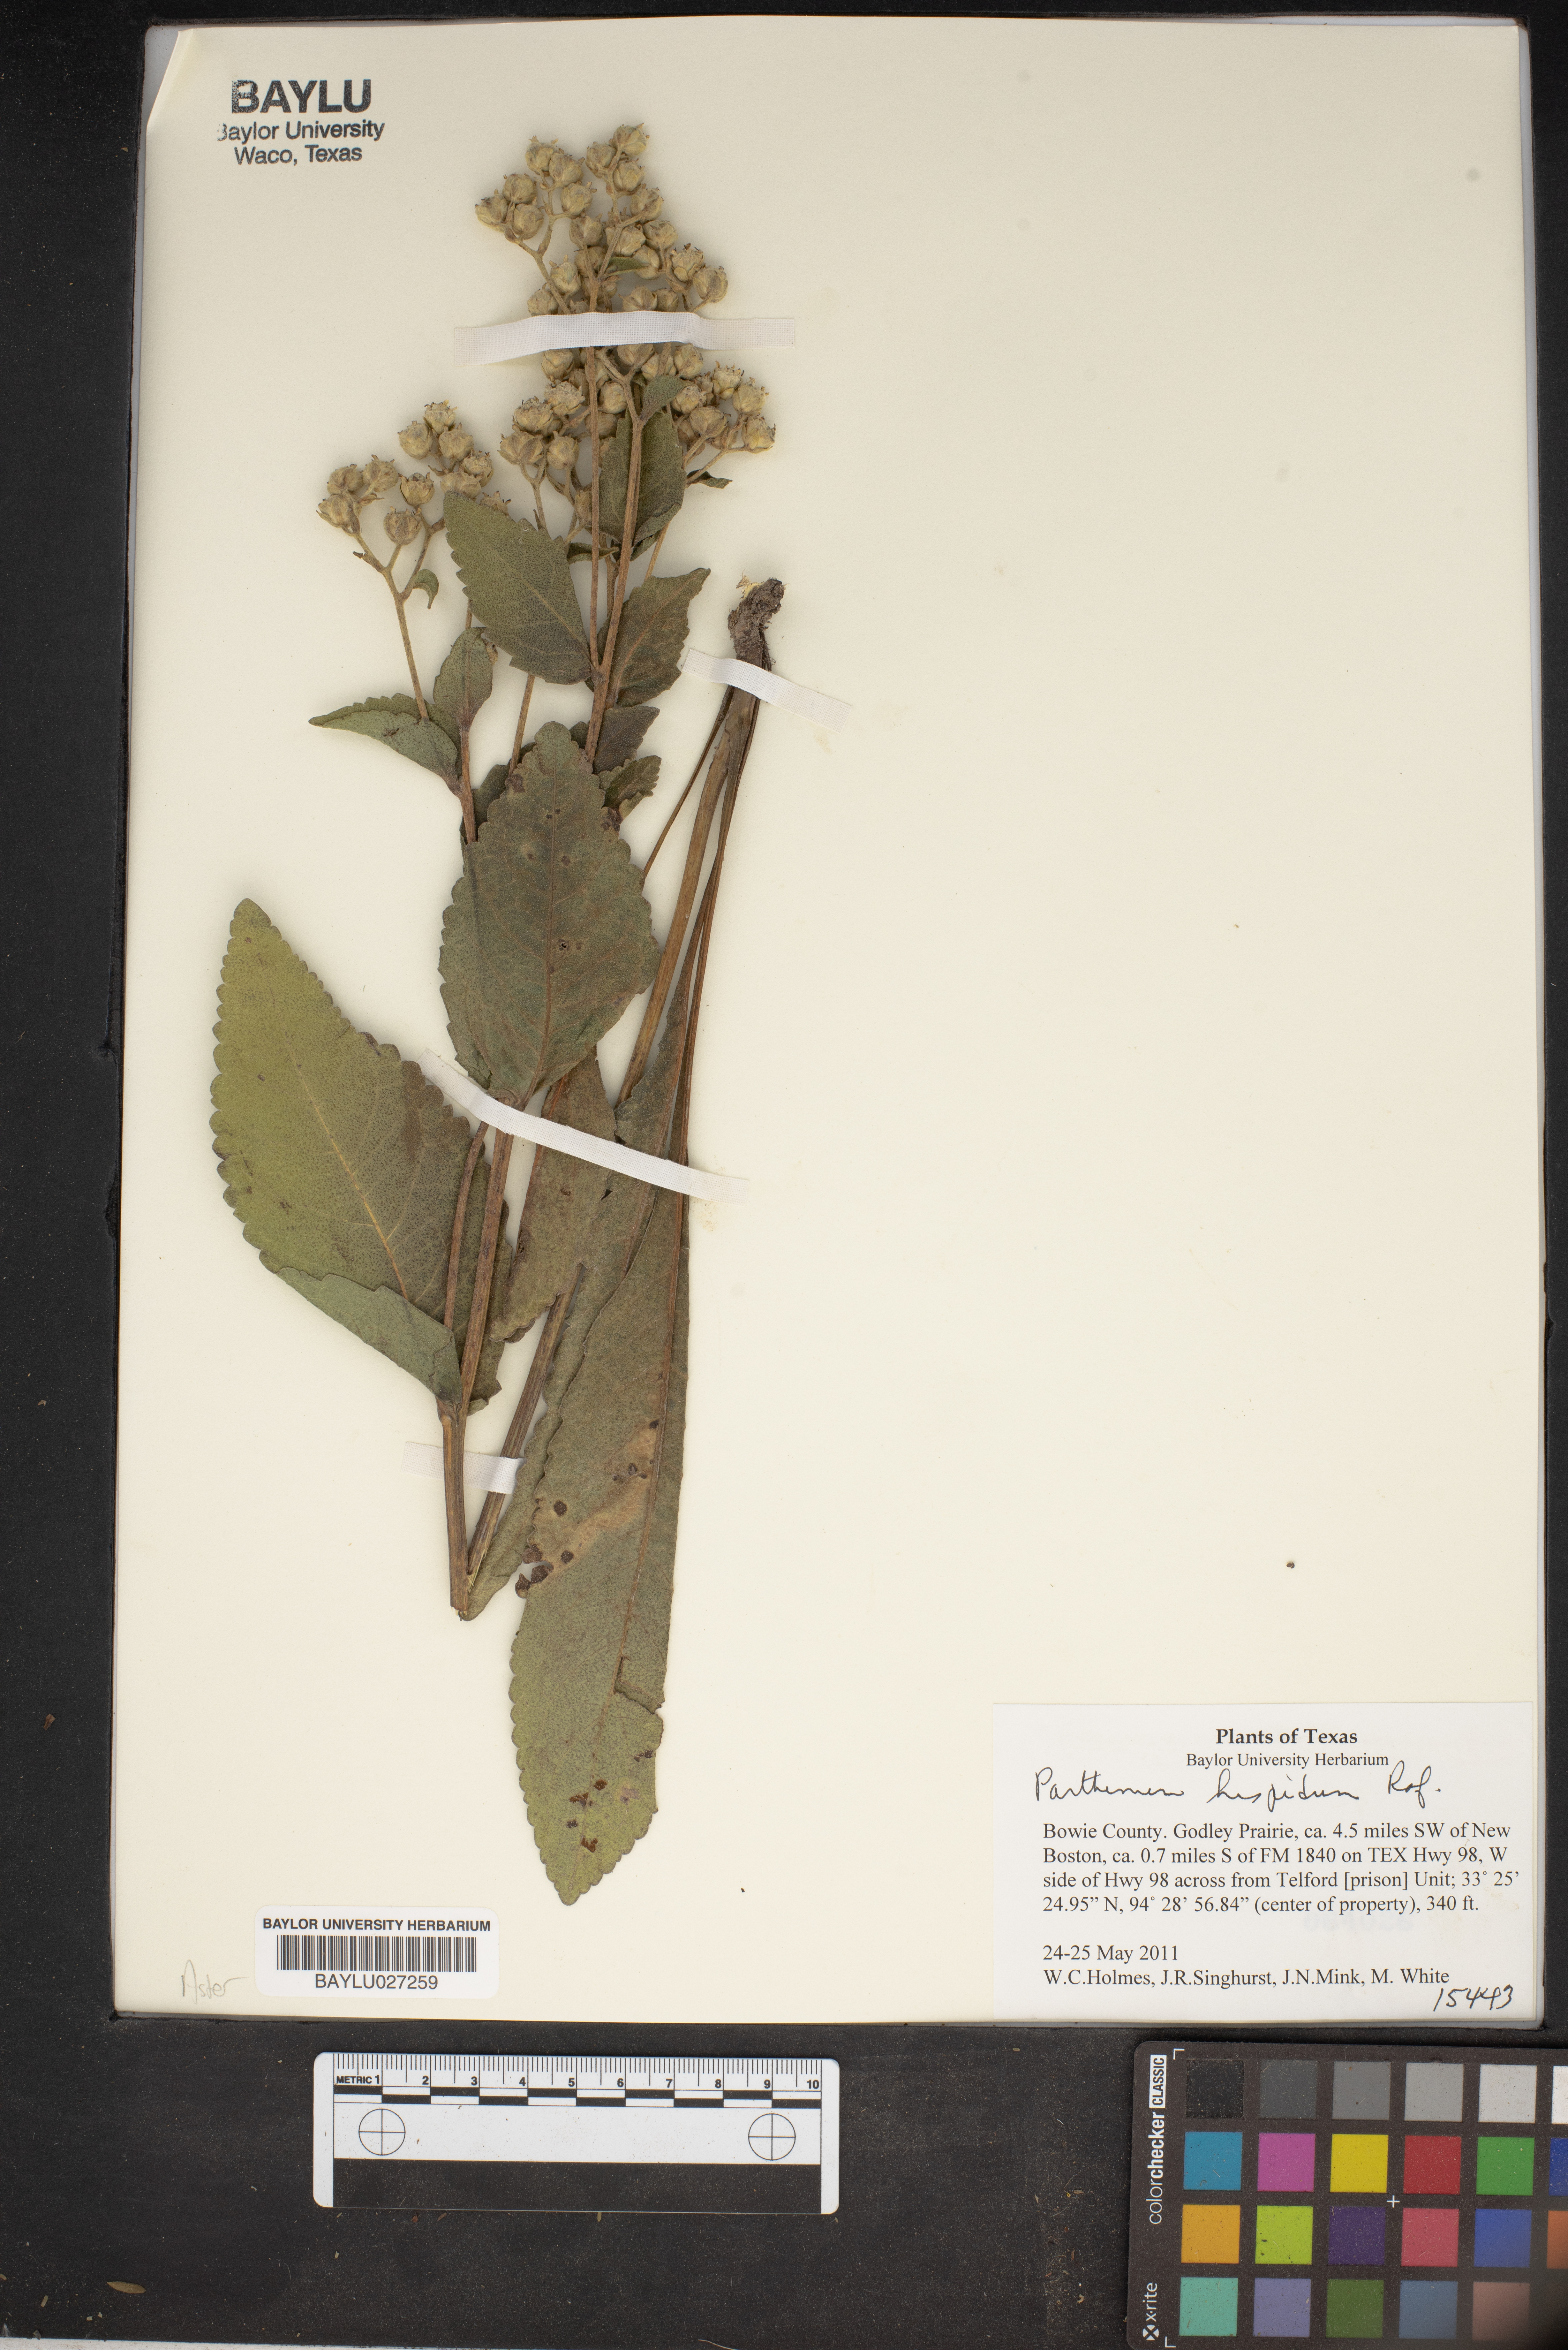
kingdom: Plantae
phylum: Tracheophyta
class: Magnoliopsida
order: Asterales
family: Asteraceae
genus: Parthenium
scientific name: Parthenium hispidum
